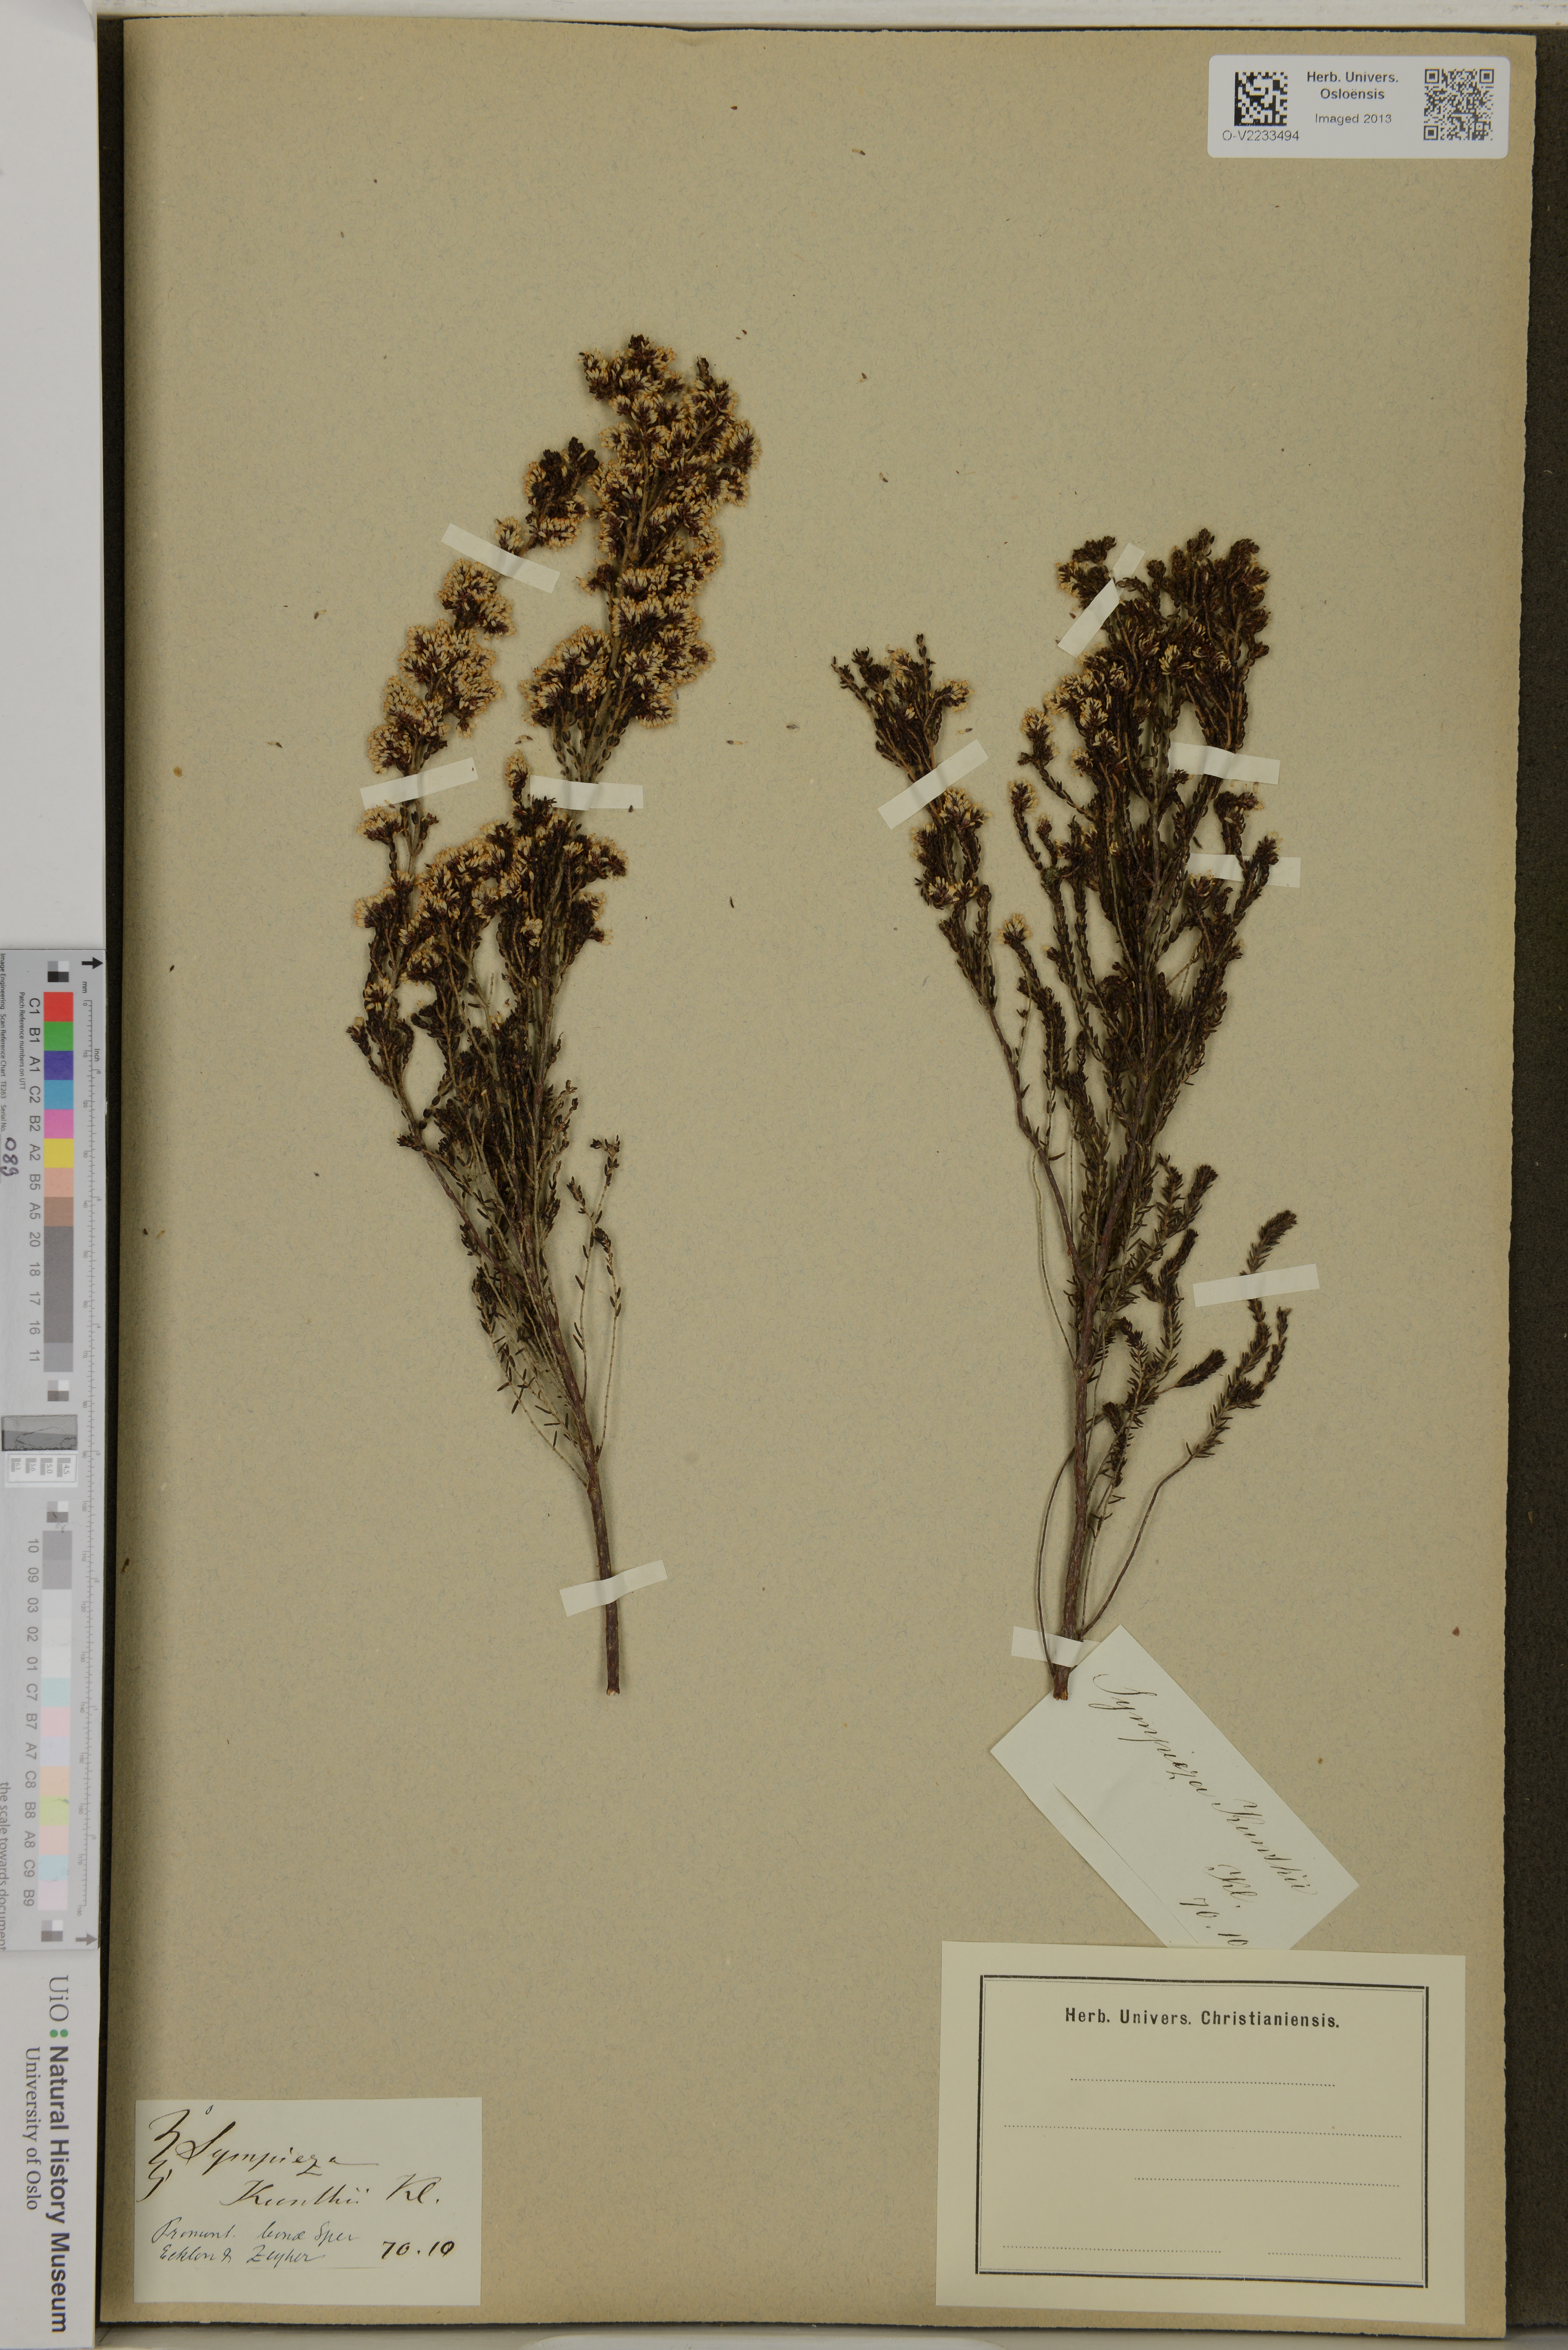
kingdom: Plantae
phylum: Tracheophyta
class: Magnoliopsida
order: Ericales
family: Ericaceae
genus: Erica
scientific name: Erica benthamiana
